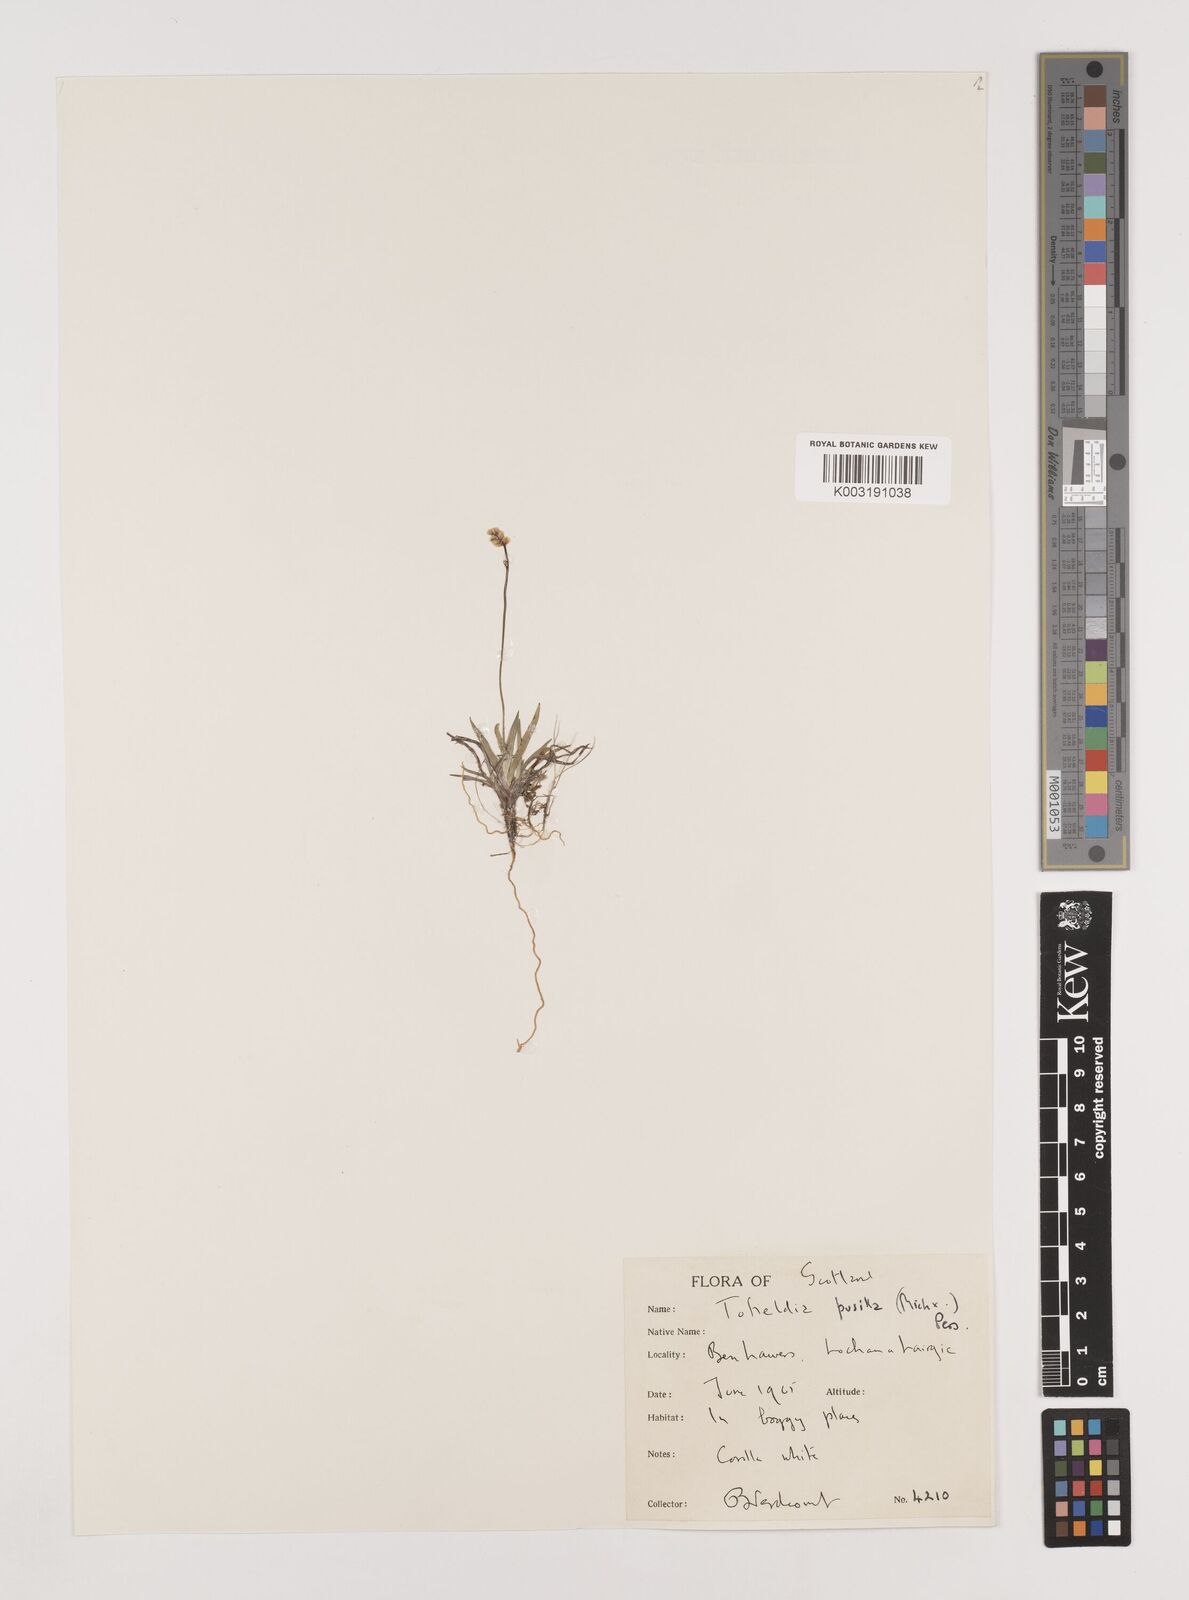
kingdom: Plantae
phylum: Tracheophyta
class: Liliopsida
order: Alismatales
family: Tofieldiaceae
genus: Tofieldia
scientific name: Tofieldia pusilla
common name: Scottish false asphodel
